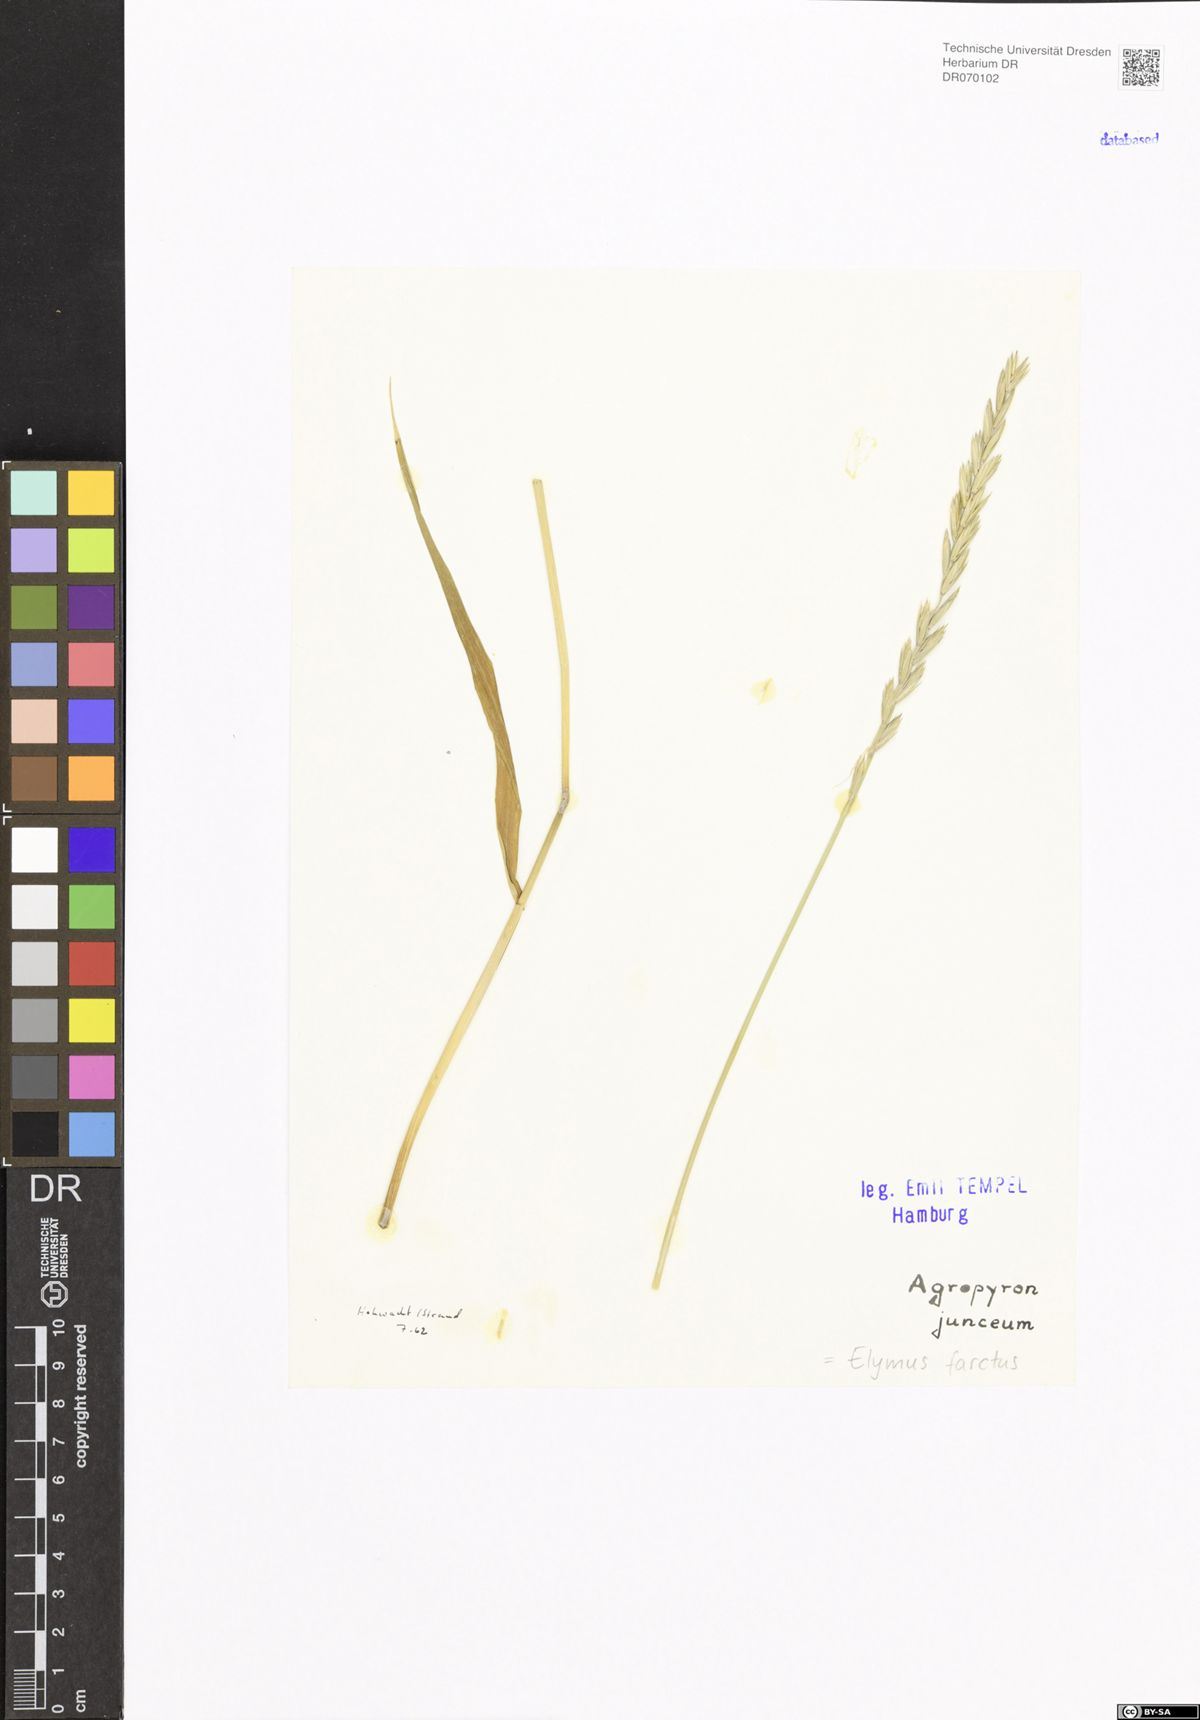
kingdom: Plantae
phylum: Tracheophyta
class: Liliopsida
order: Poales
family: Poaceae
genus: Thinopyrum
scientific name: Thinopyrum junceum
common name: Russian wheatgrass
